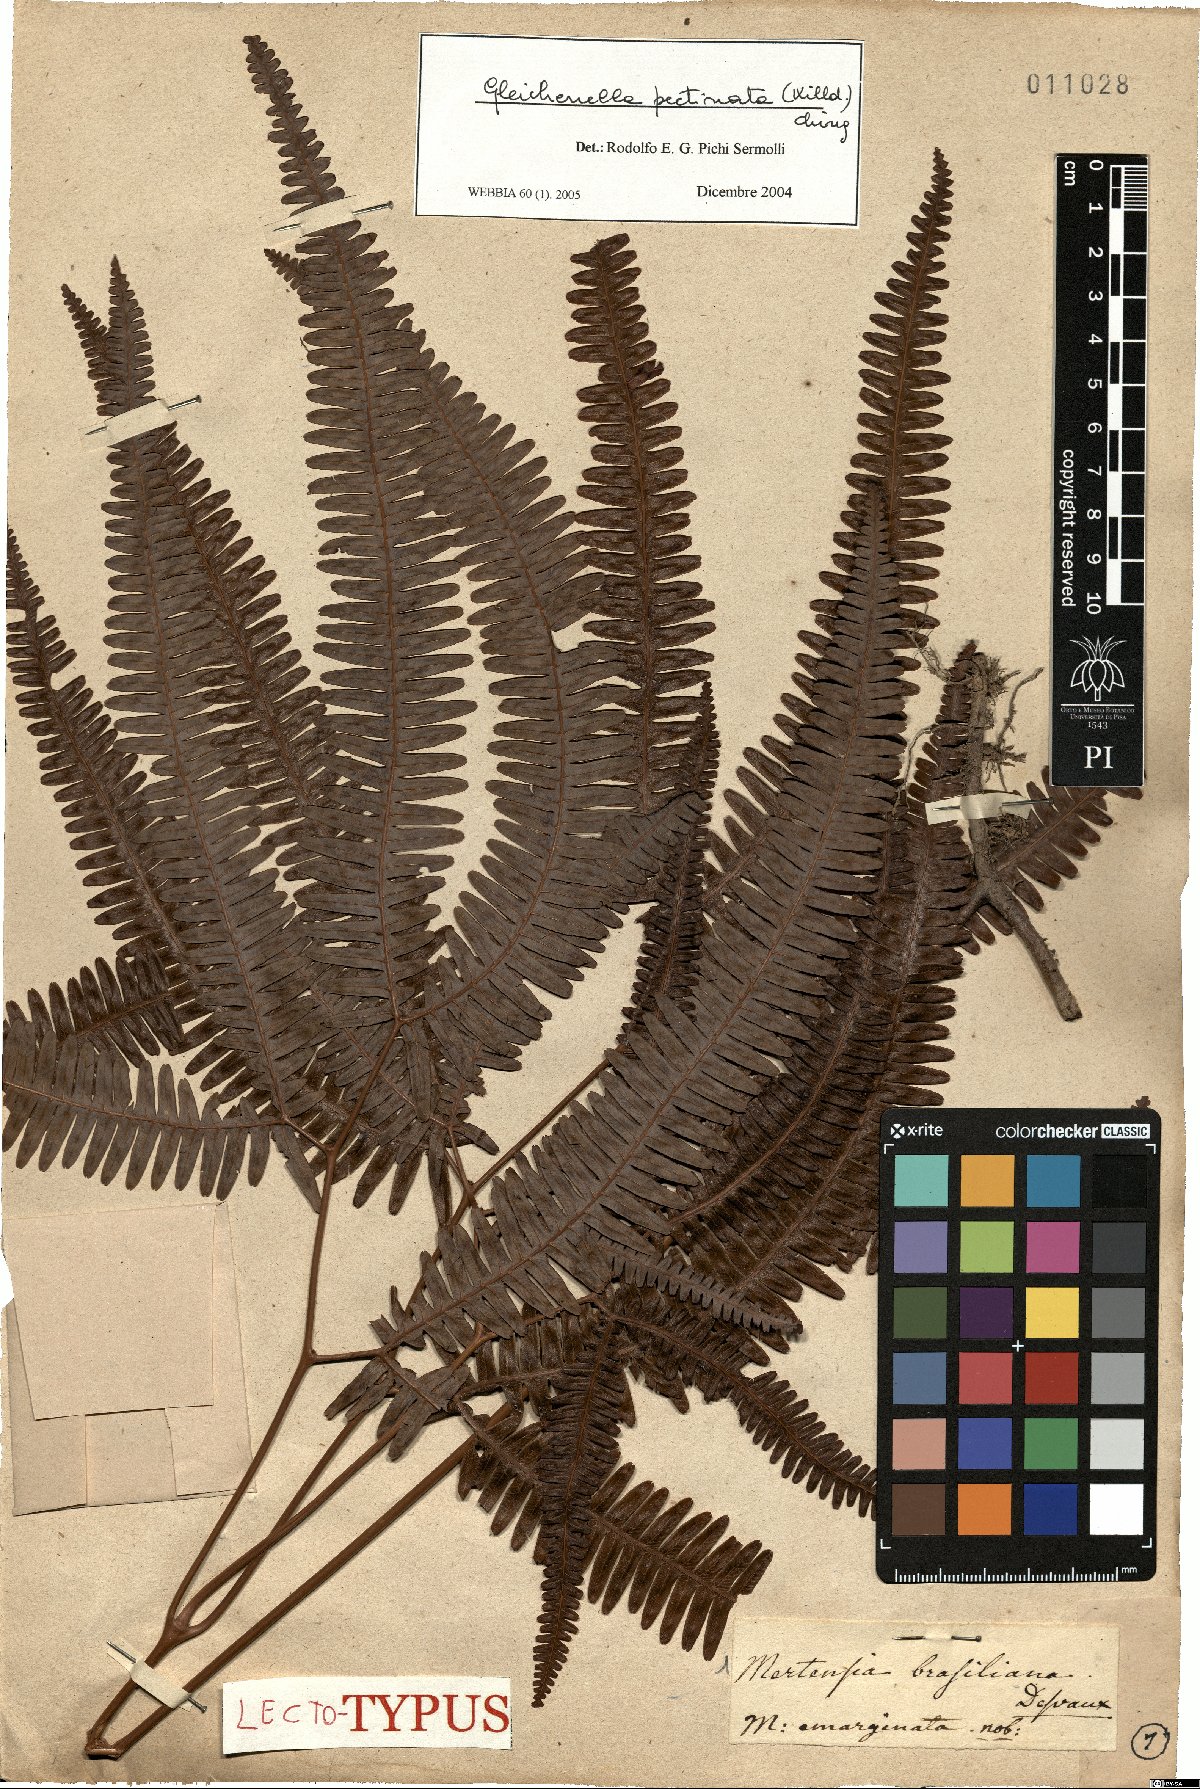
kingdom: Plantae
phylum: Tracheophyta
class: Polypodiopsida
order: Gleicheniales
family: Gleicheniaceae
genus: Gleichenella
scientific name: Gleichenella pectinata
